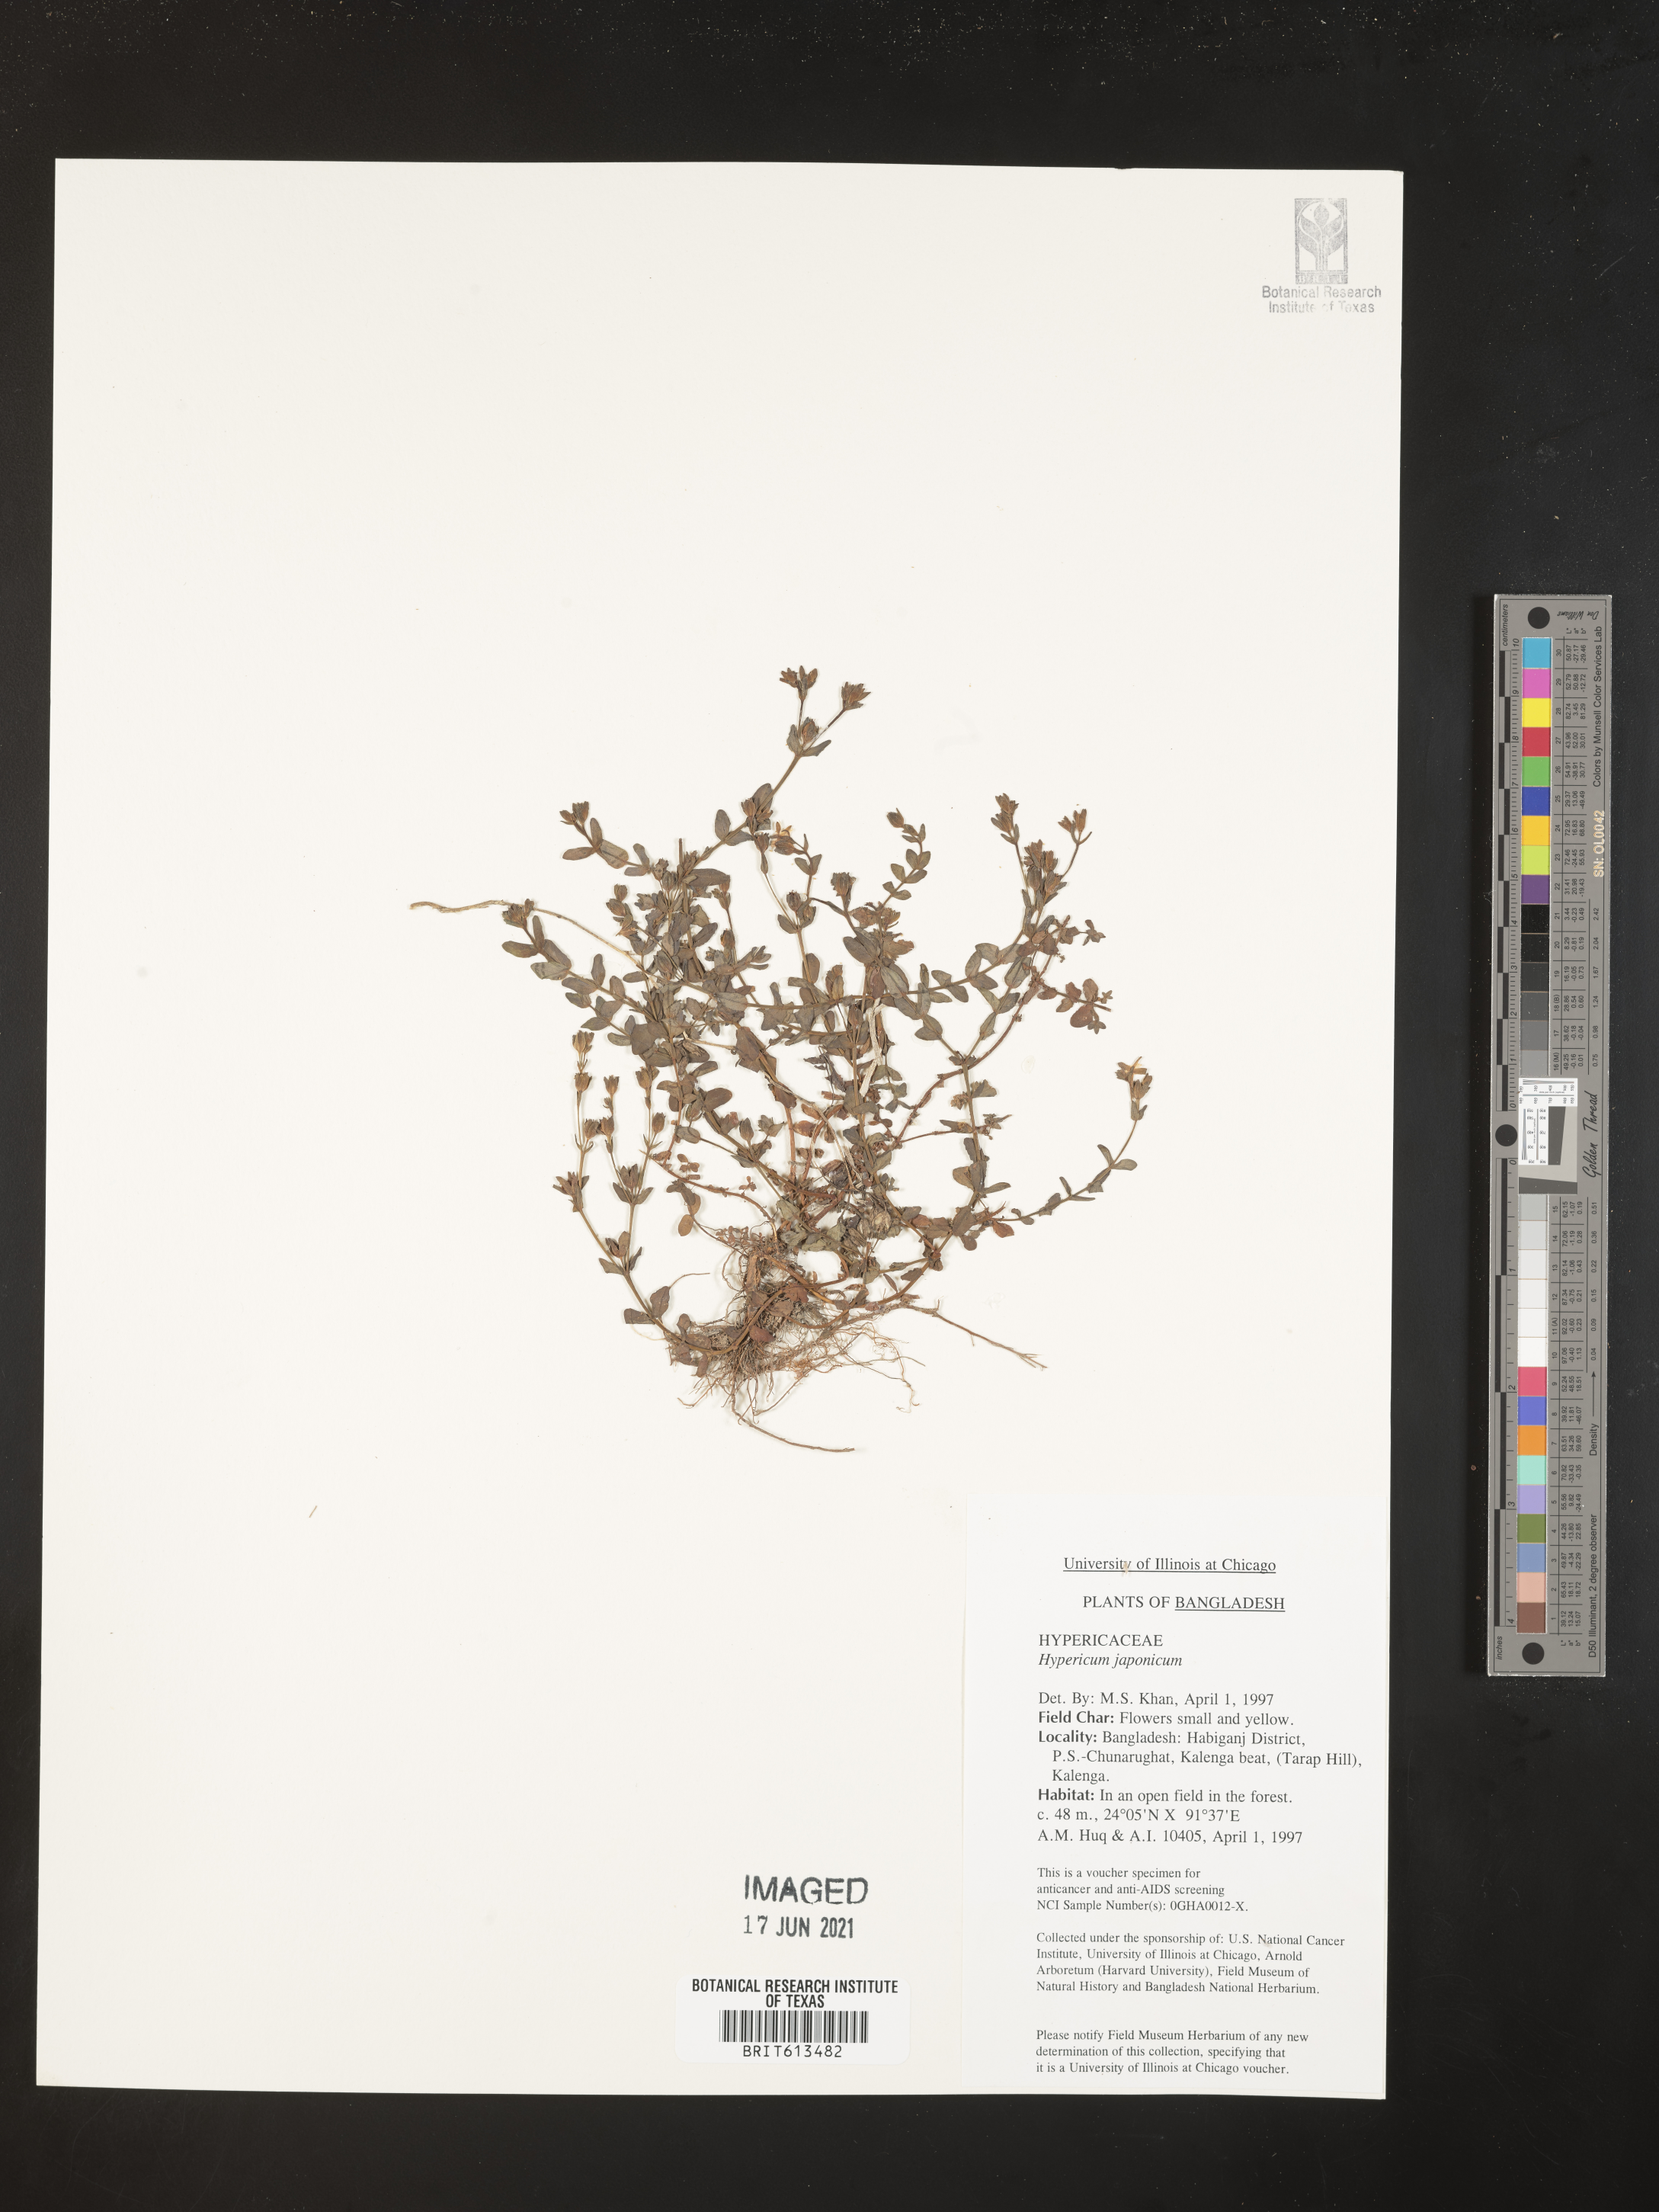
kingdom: Plantae
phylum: Tracheophyta
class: Magnoliopsida
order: Malpighiales
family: Hypericaceae
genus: Hypericum
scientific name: Hypericum japonicum
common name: Matted st. john's-wort
